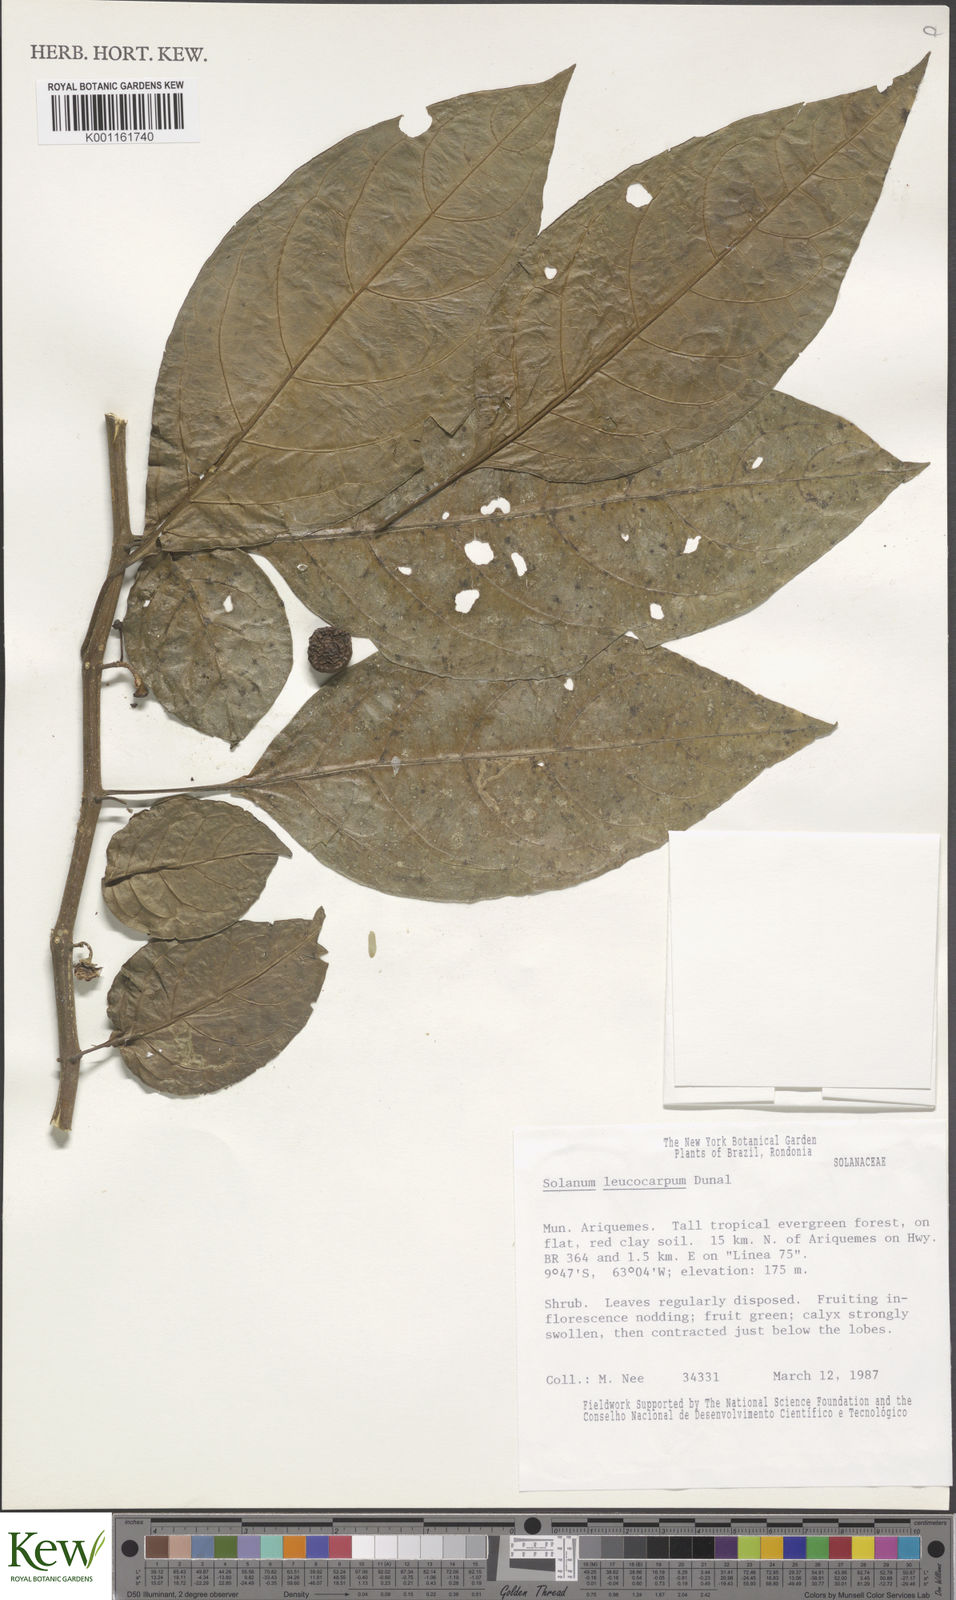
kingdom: Plantae
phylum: Tracheophyta
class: Magnoliopsida
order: Solanales
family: Solanaceae
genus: Solanum
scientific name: Solanum leucocarpon
